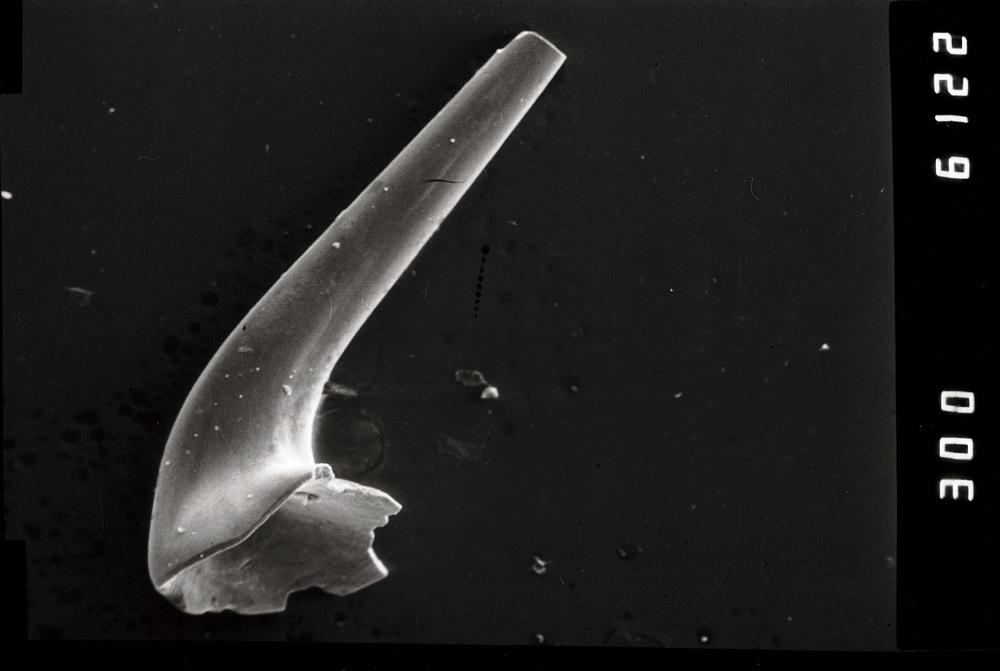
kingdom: Animalia
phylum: Chordata
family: Acodontidae
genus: Tripodus
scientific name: Tripodus
